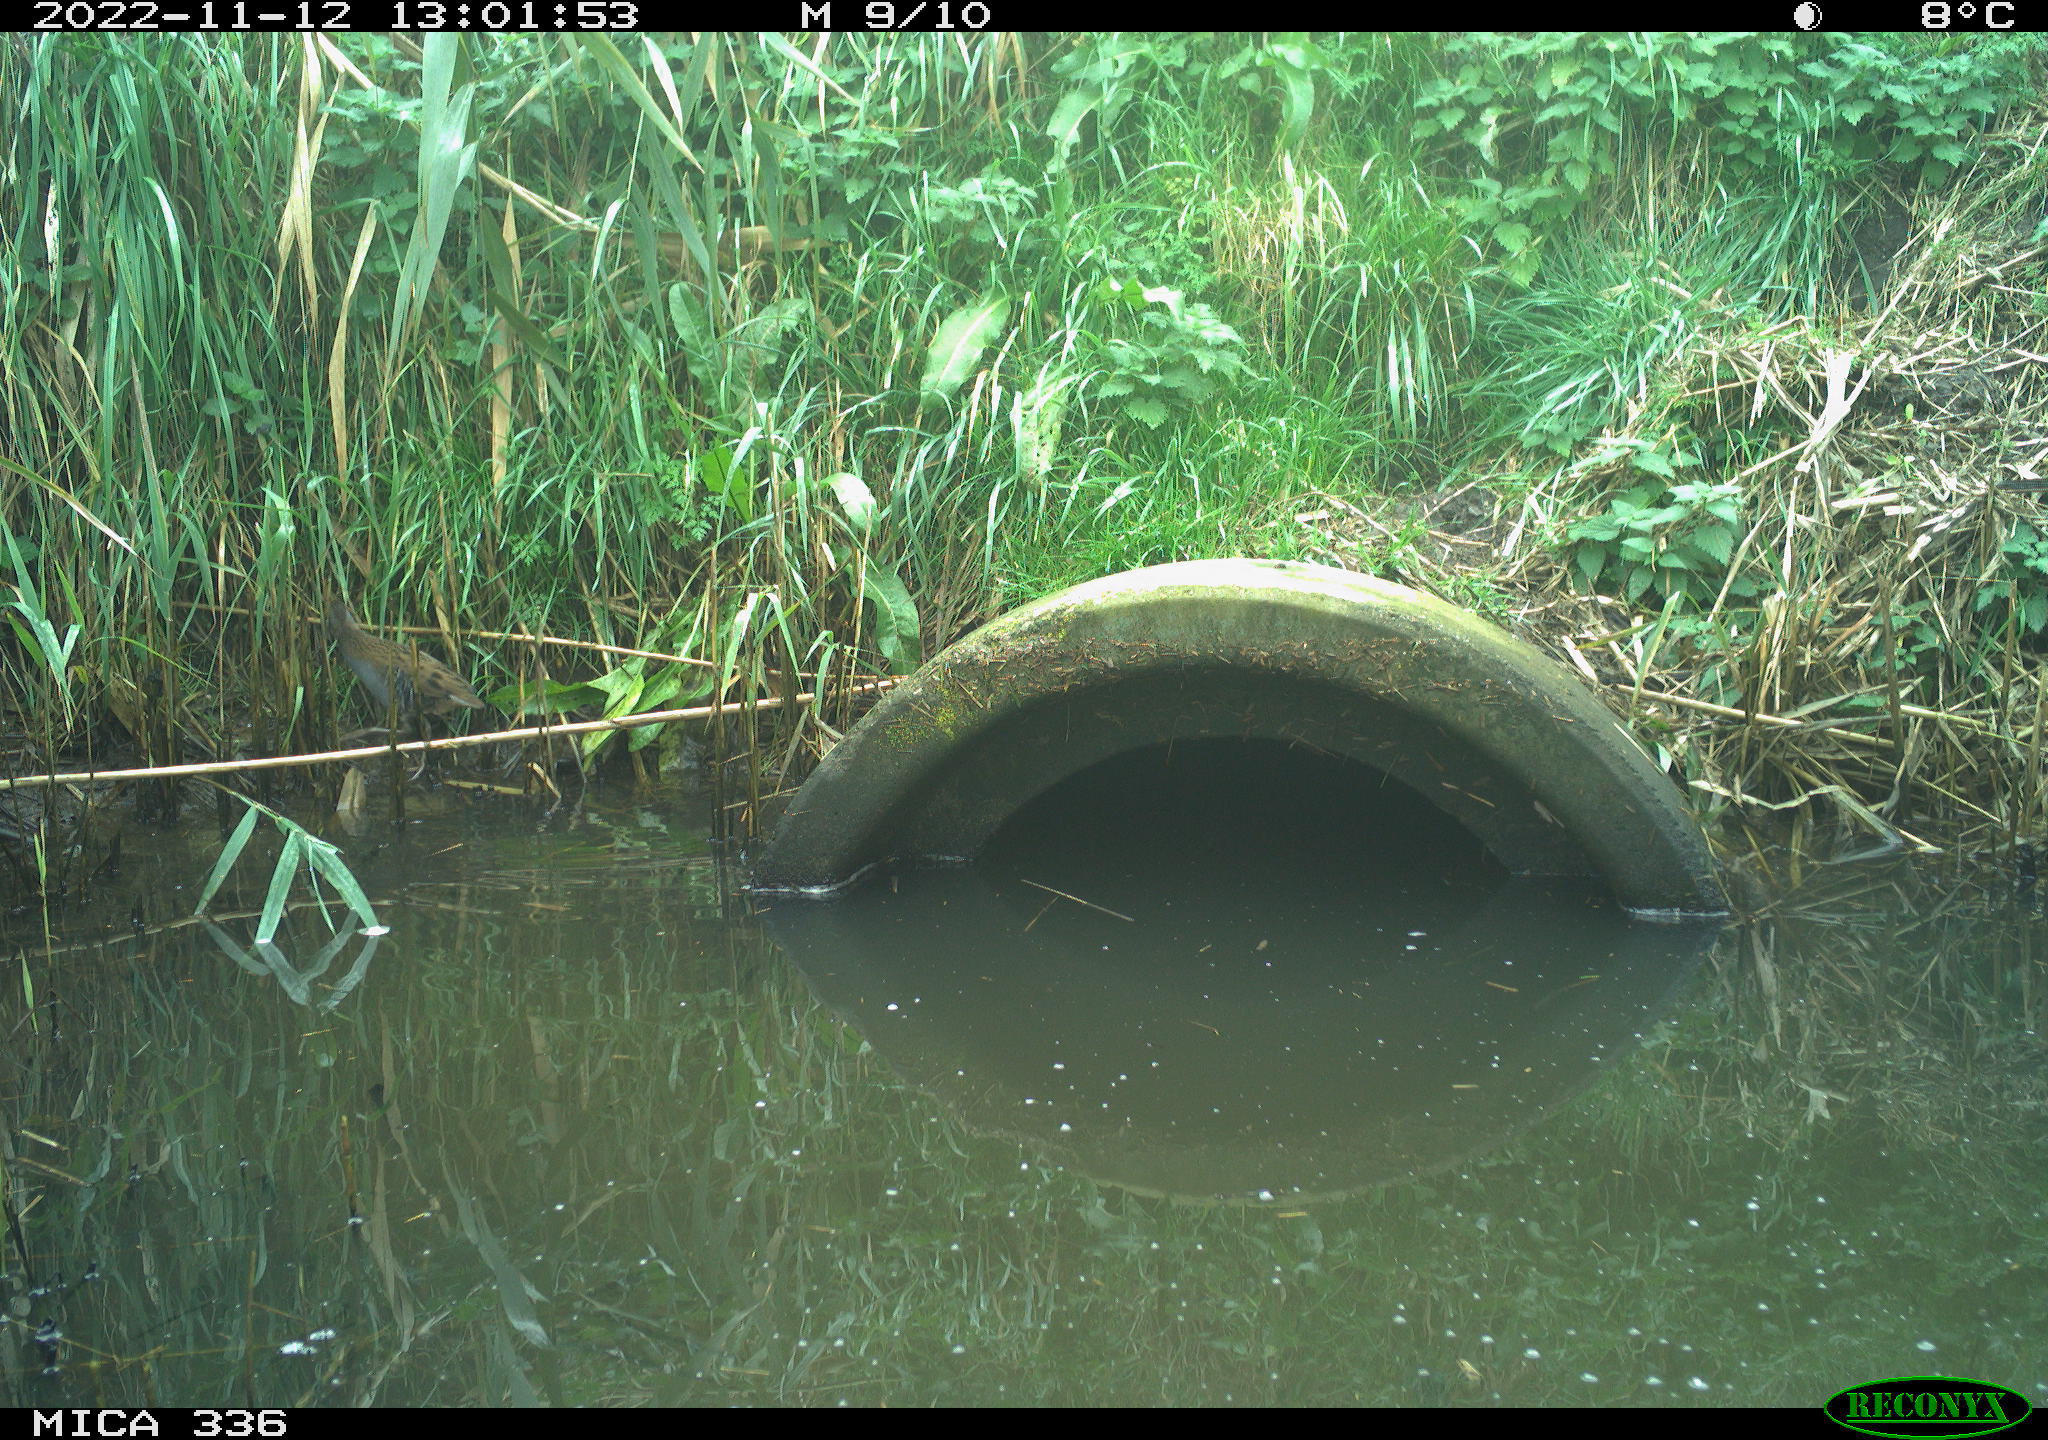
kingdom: Animalia
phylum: Chordata
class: Aves
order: Gruiformes
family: Rallidae
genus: Rallus
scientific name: Rallus aquaticus
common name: Water rail
